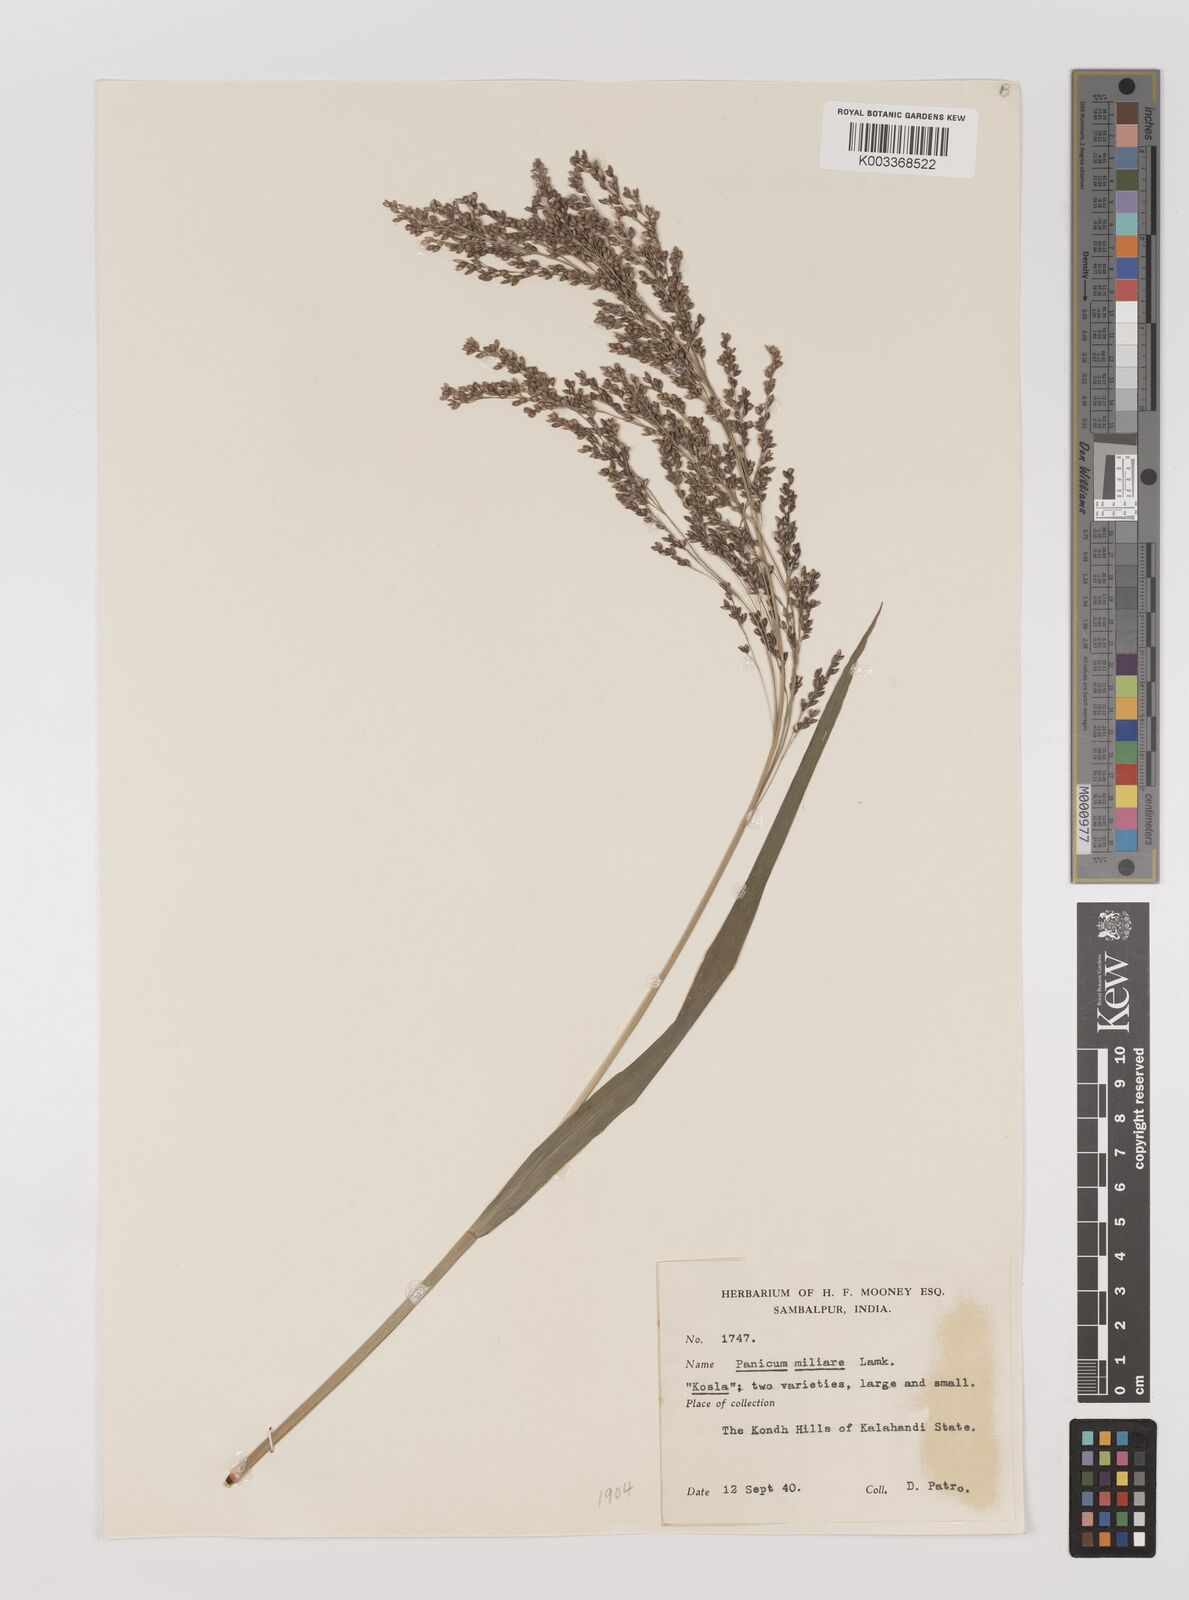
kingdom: Plantae
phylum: Tracheophyta
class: Liliopsida
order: Poales
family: Poaceae
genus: Panicum
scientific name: Panicum sumatrense
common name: Little millet
